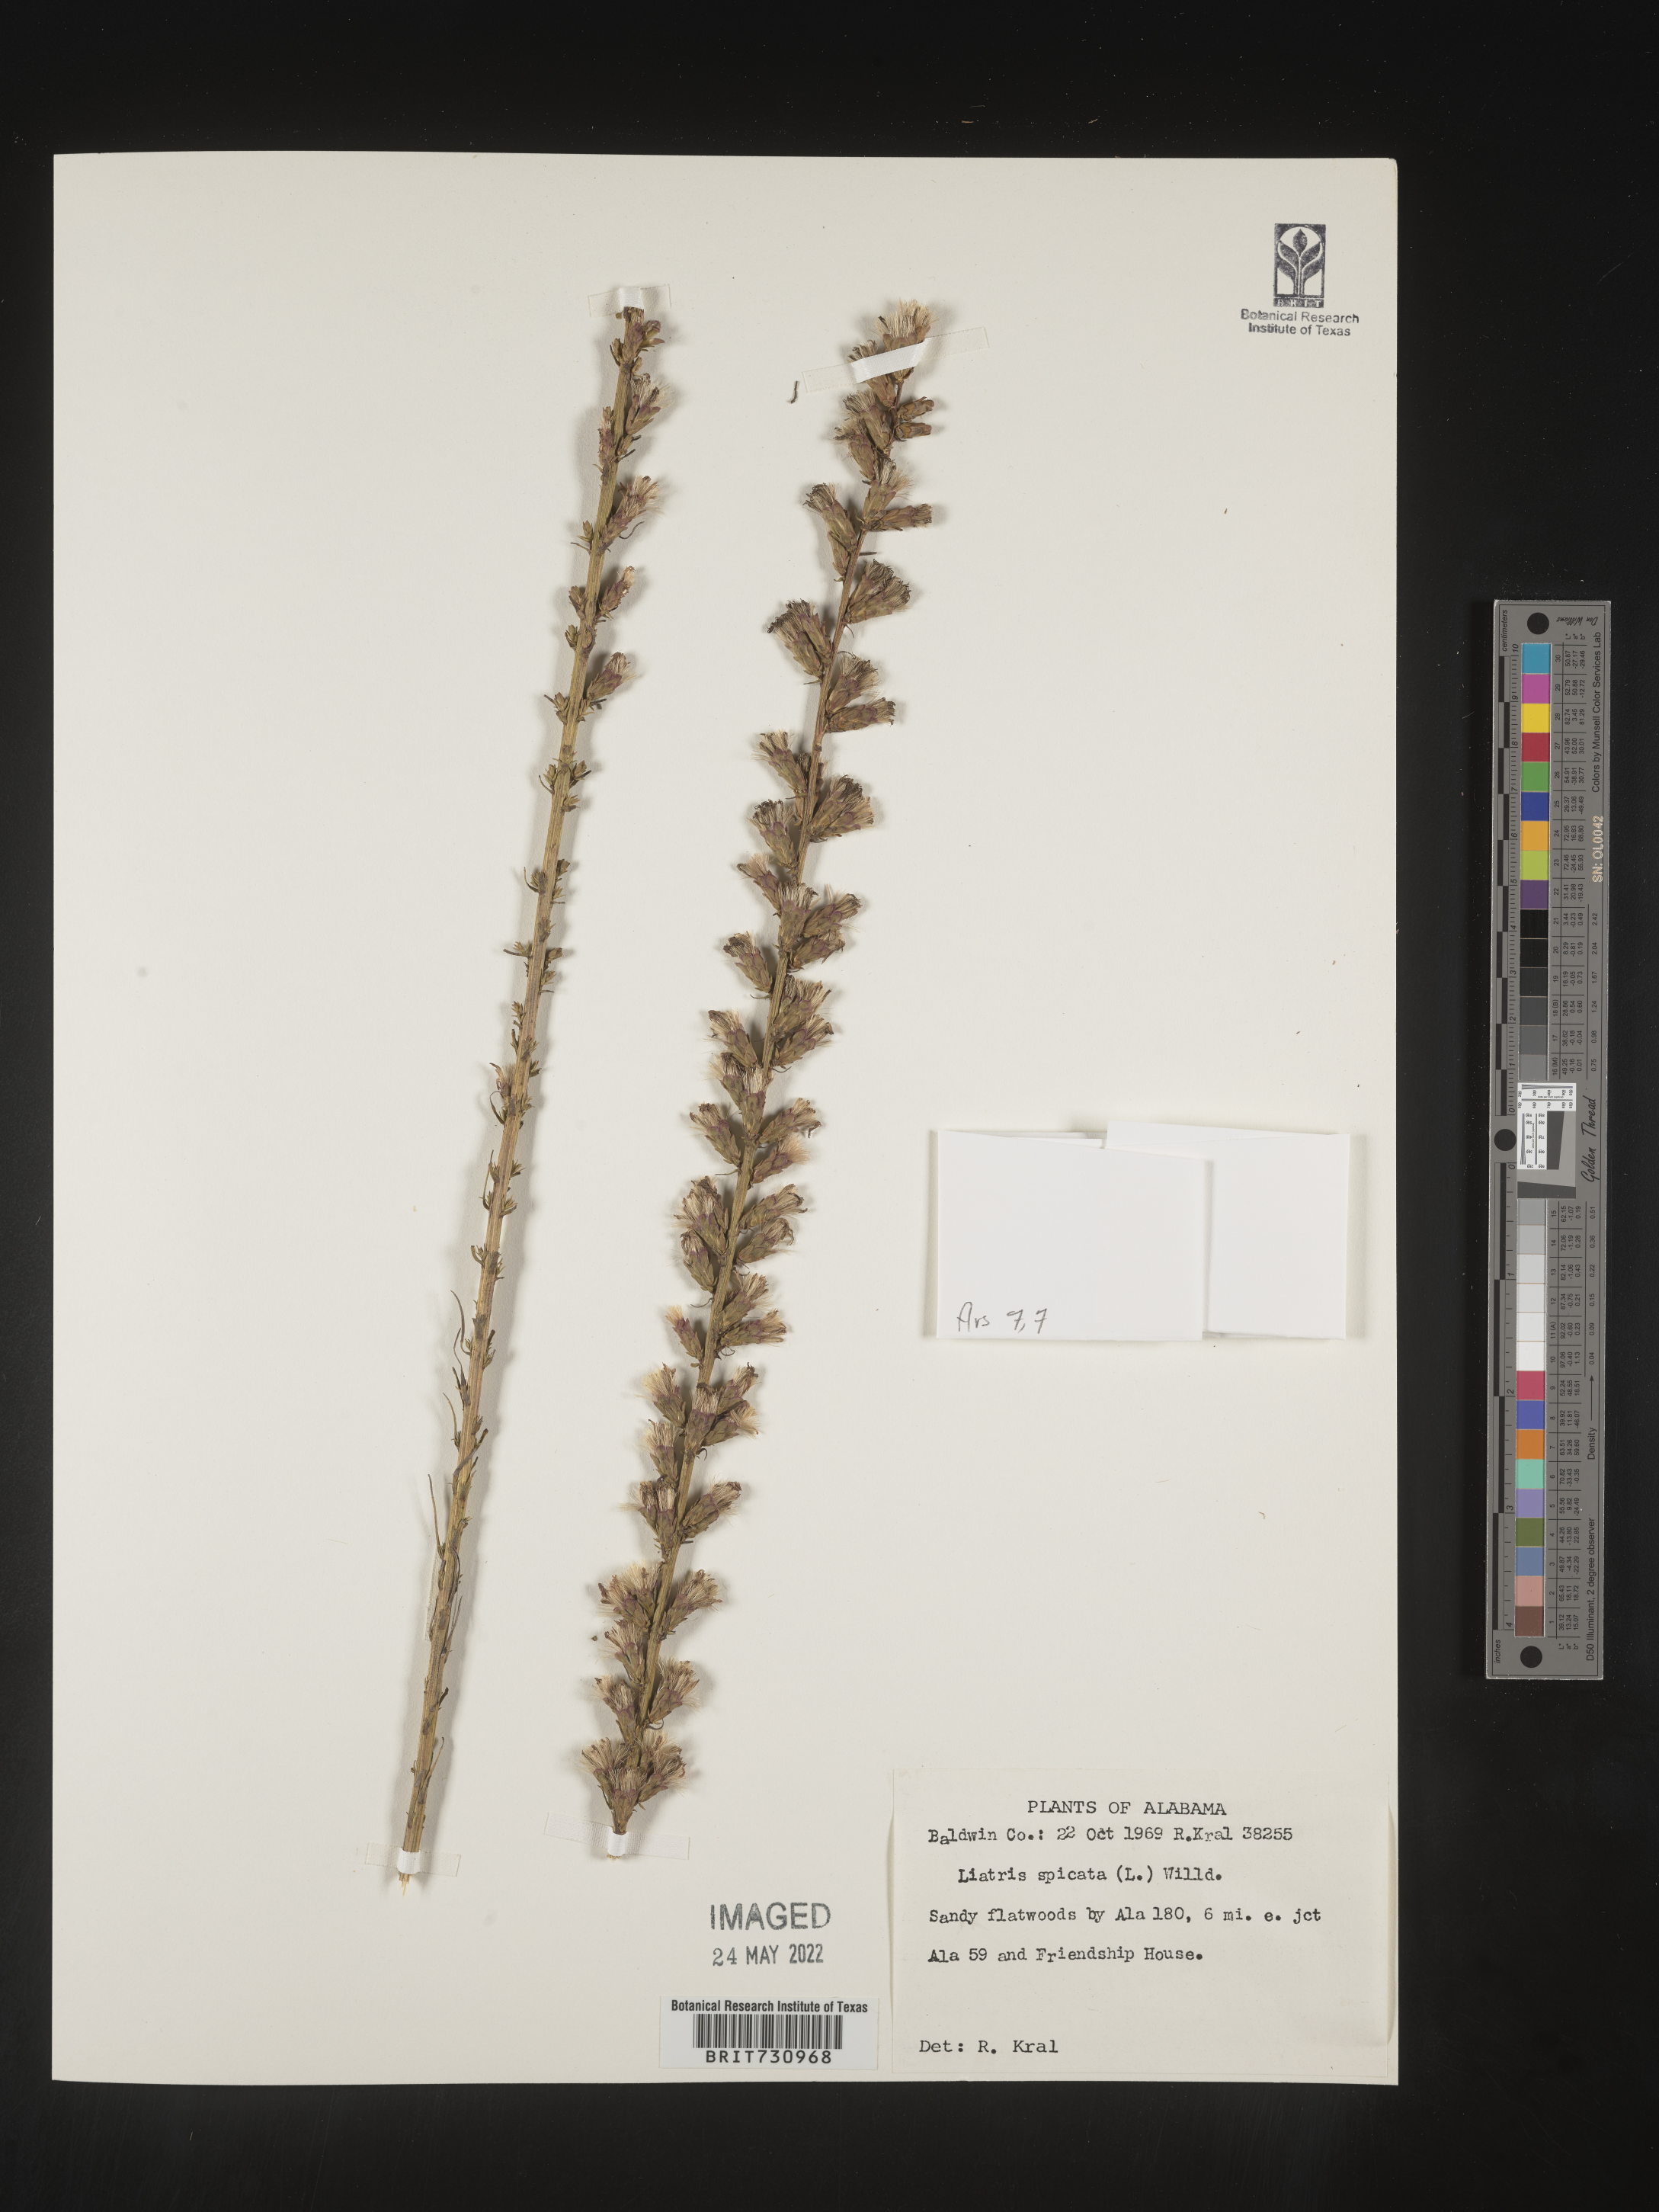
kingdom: Plantae
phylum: Tracheophyta
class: Magnoliopsida
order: Asterales
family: Asteraceae
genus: Liatris
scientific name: Liatris spicata
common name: Florist gayfeather
